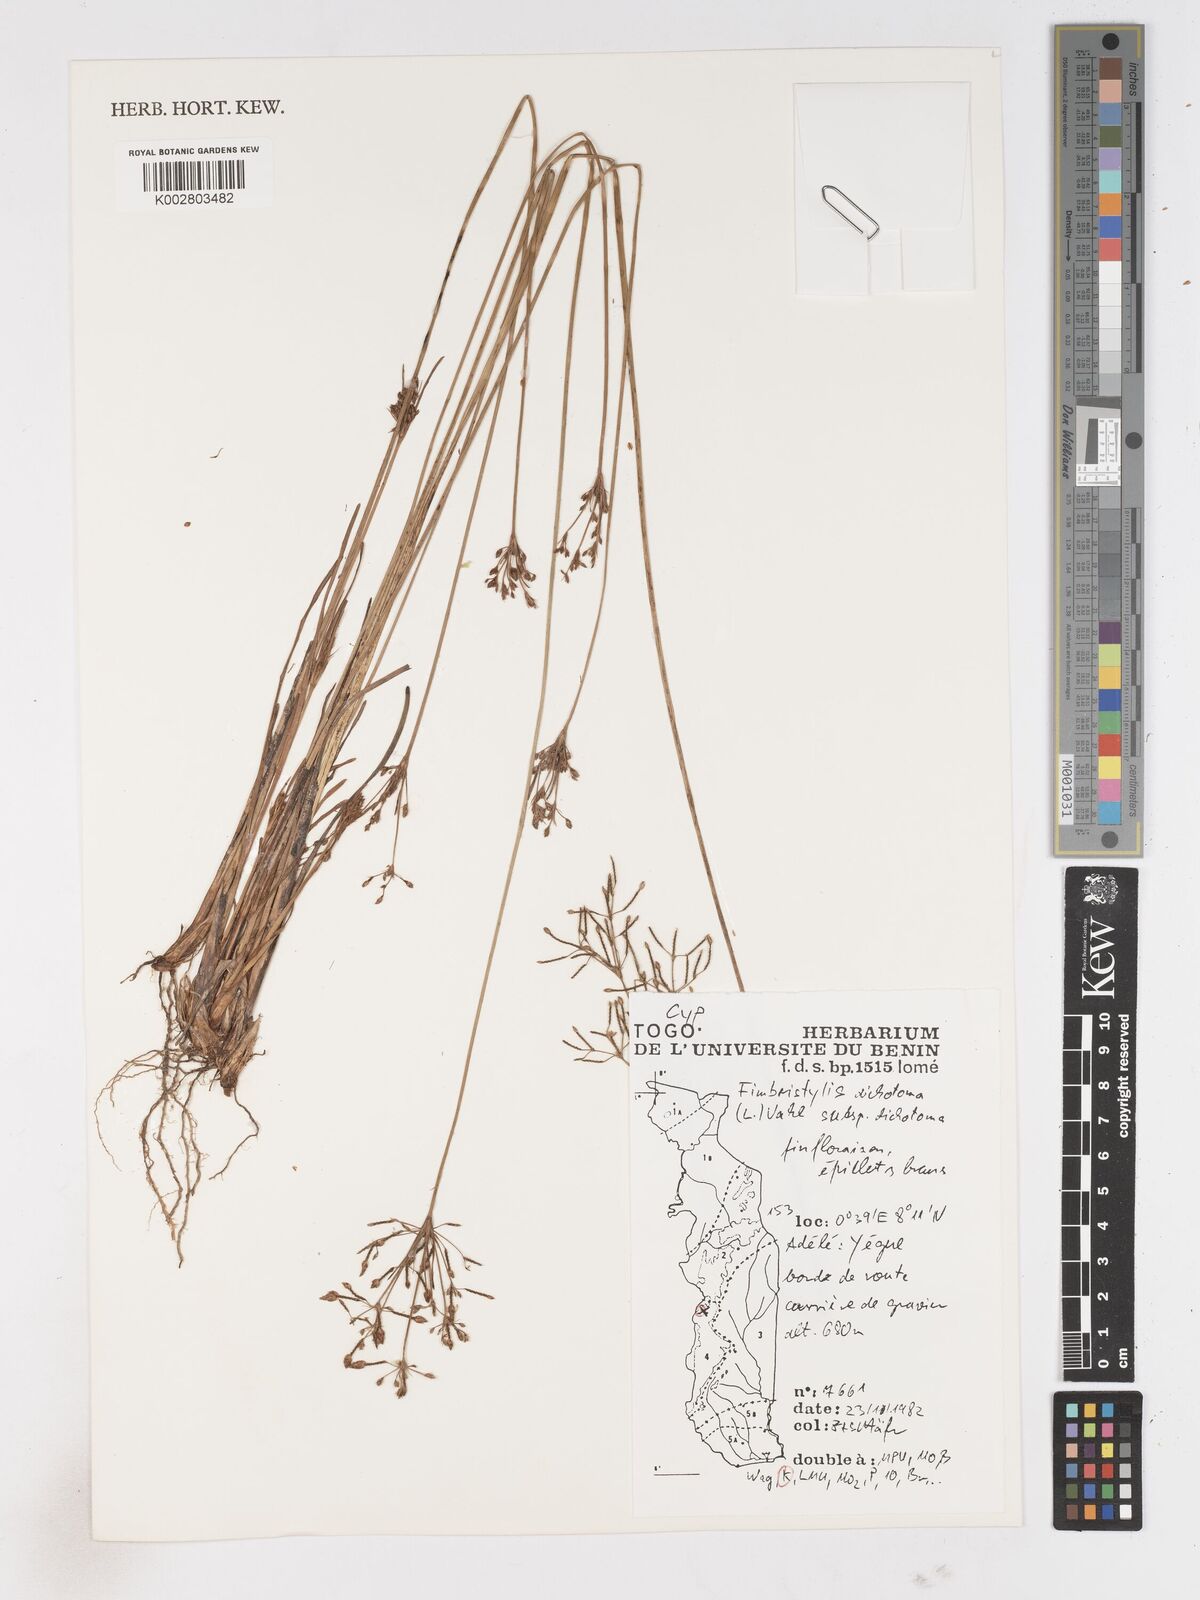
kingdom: Plantae
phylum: Tracheophyta
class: Liliopsida
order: Poales
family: Cyperaceae
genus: Fimbristylis
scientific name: Fimbristylis dichotoma
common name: Forked fimbry
